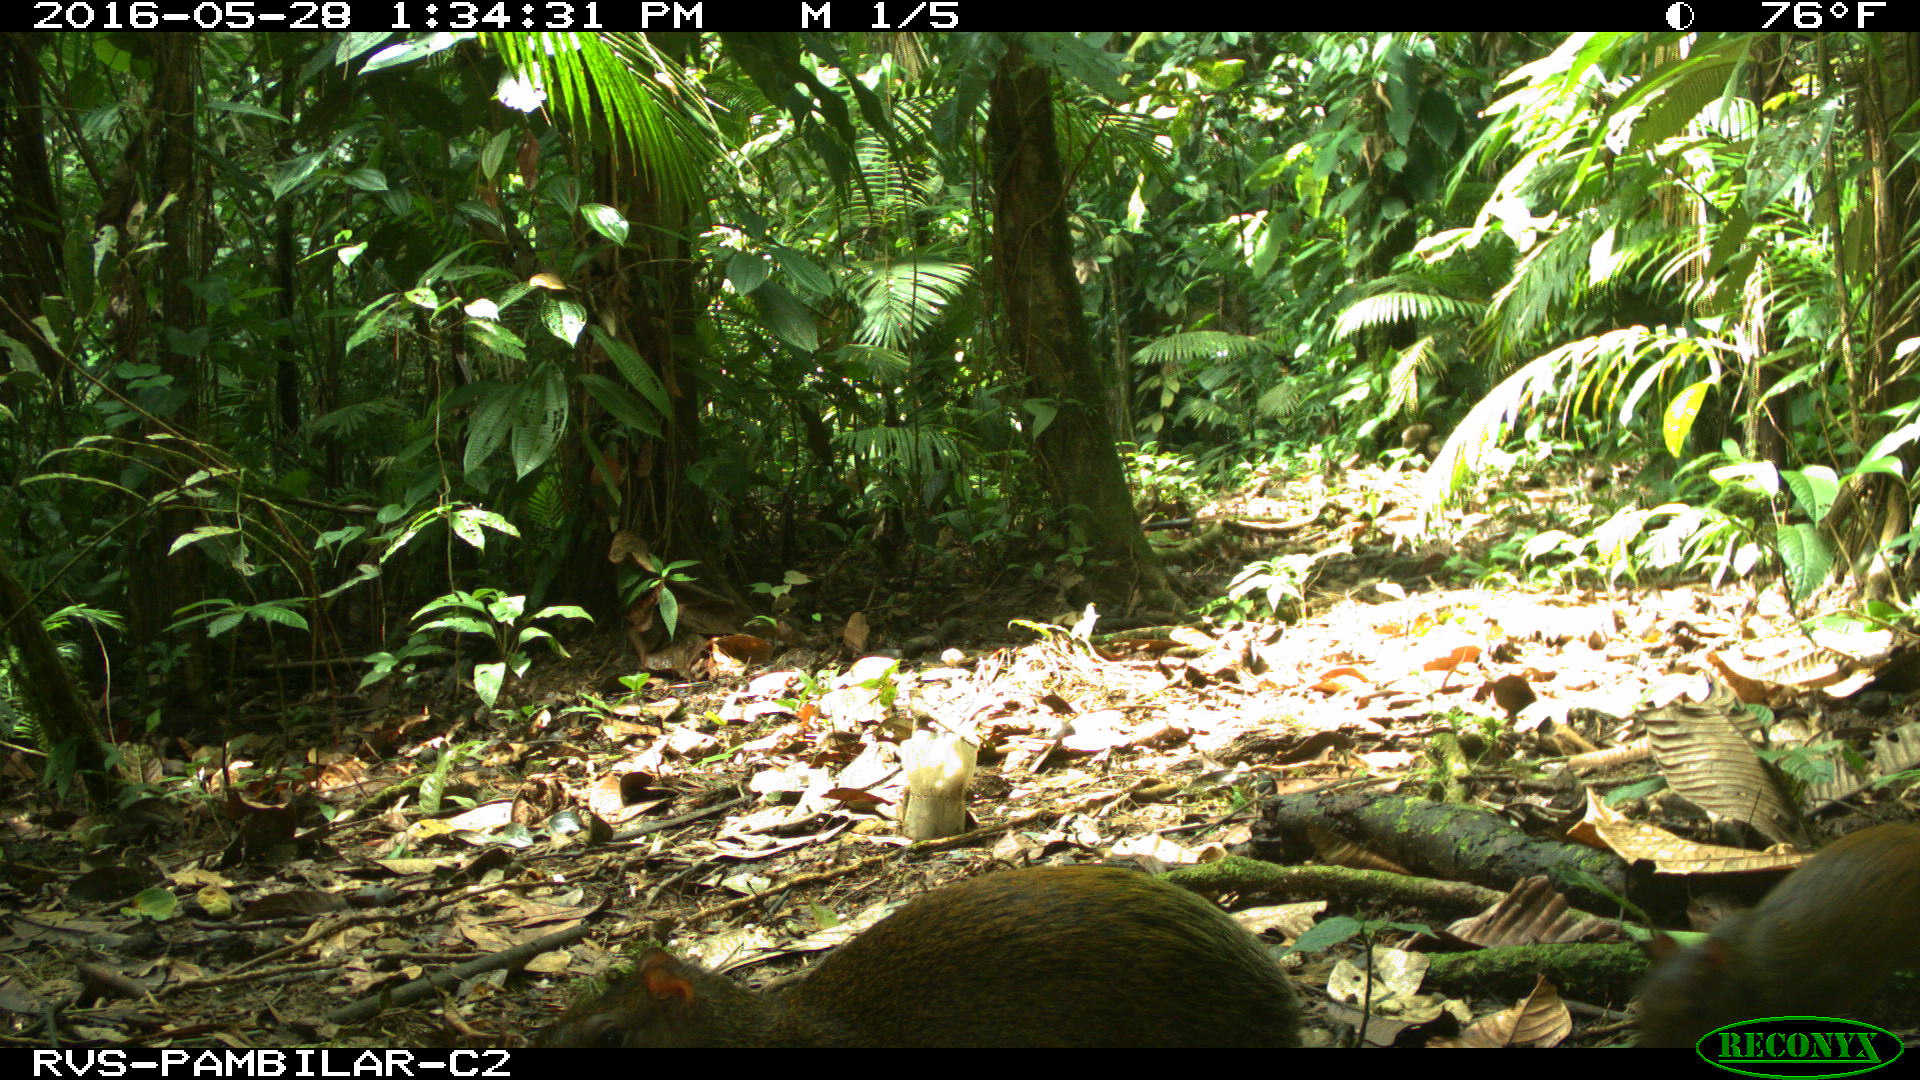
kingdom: Animalia
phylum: Chordata
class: Mammalia
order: Rodentia
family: Dasyproctidae
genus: Dasyprocta
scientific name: Dasyprocta punctata
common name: Central american agouti
